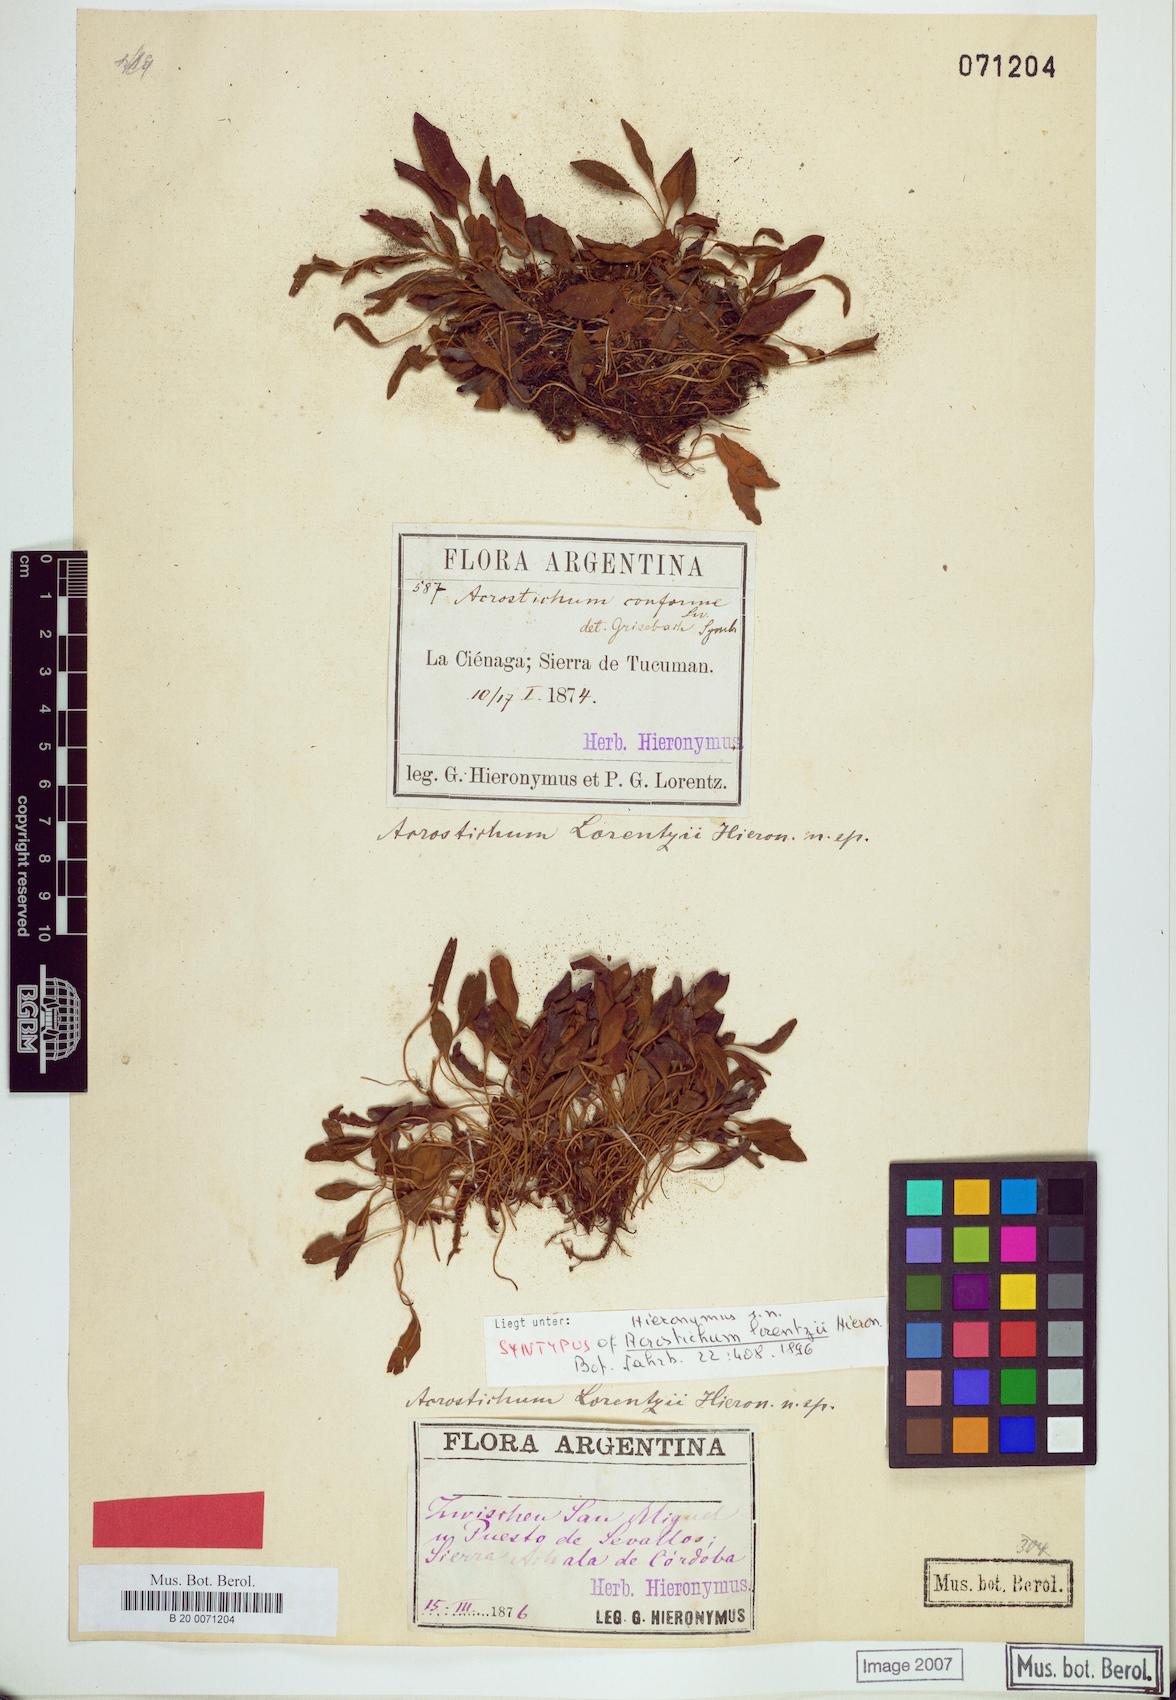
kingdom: Plantae
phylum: Tracheophyta
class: Polypodiopsida
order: Polypodiales
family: Dryopteridaceae
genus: Elaphoglossum
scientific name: Elaphoglossum lorentzii
